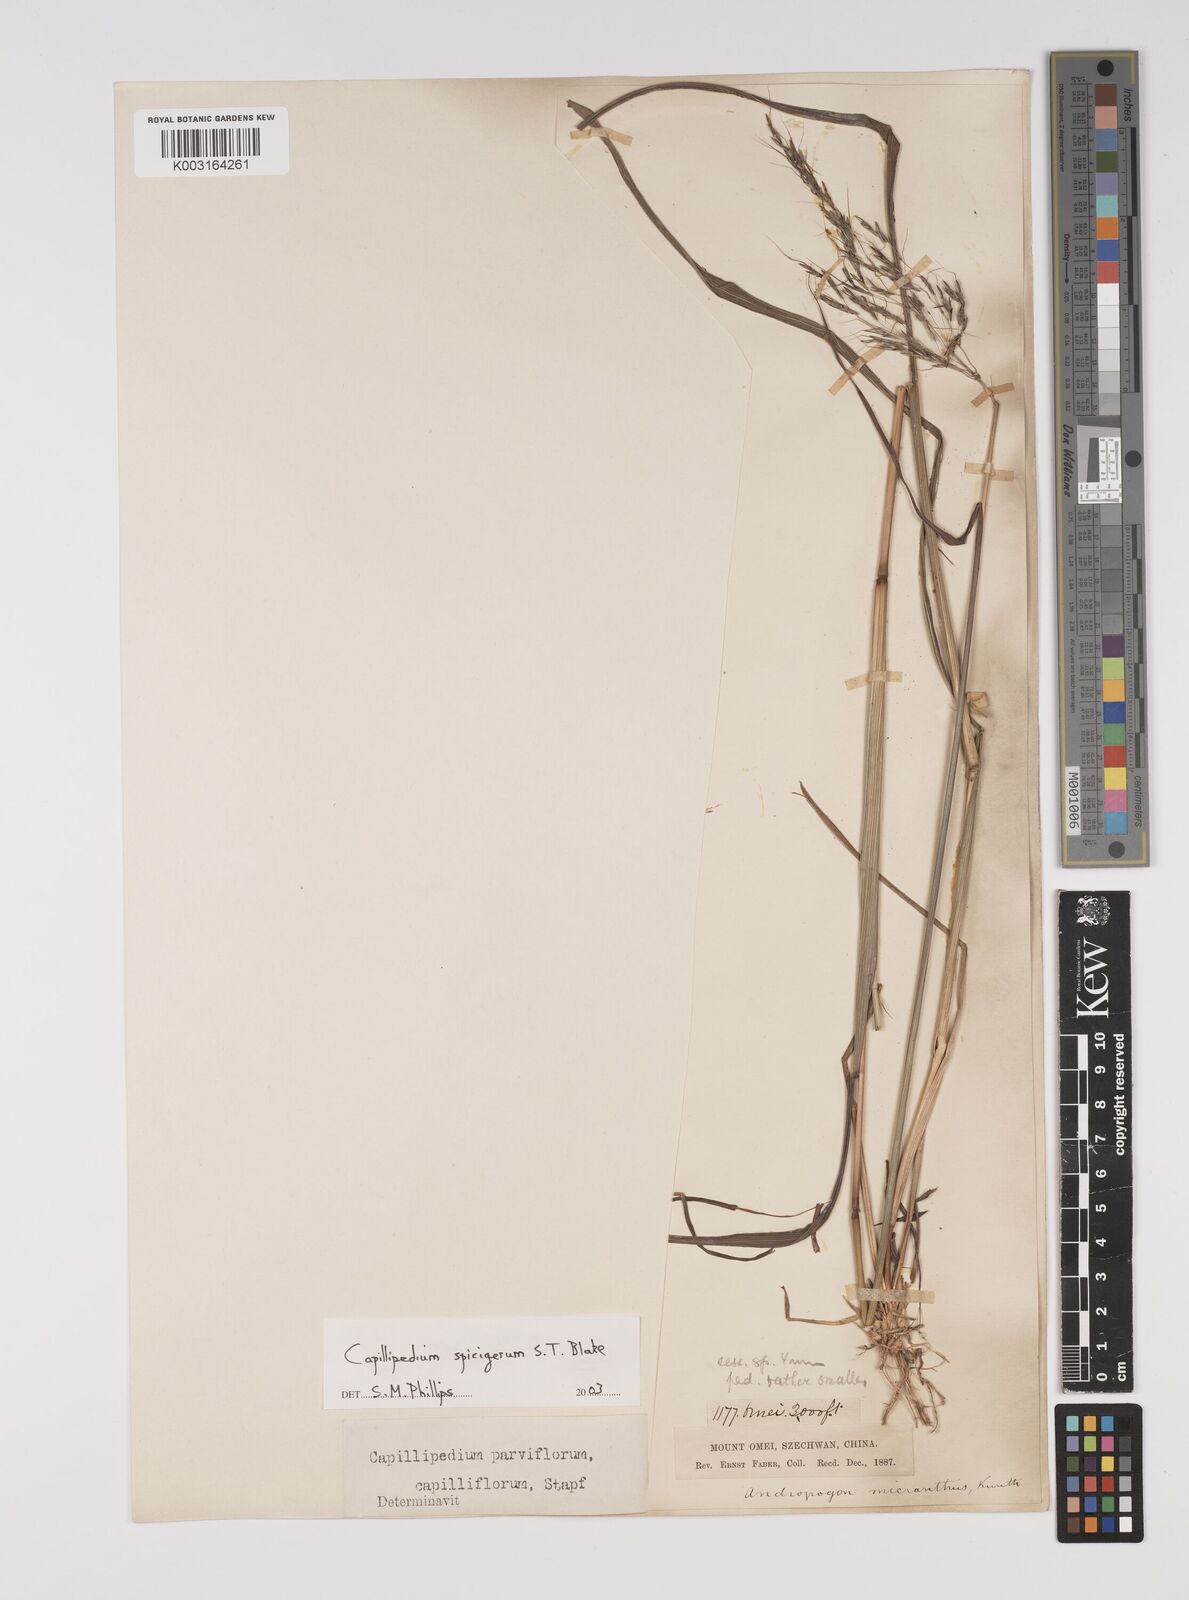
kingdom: Plantae
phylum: Tracheophyta
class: Liliopsida
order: Poales
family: Poaceae
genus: Capillipedium
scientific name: Capillipedium spicigerum
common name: Scented-top grass
